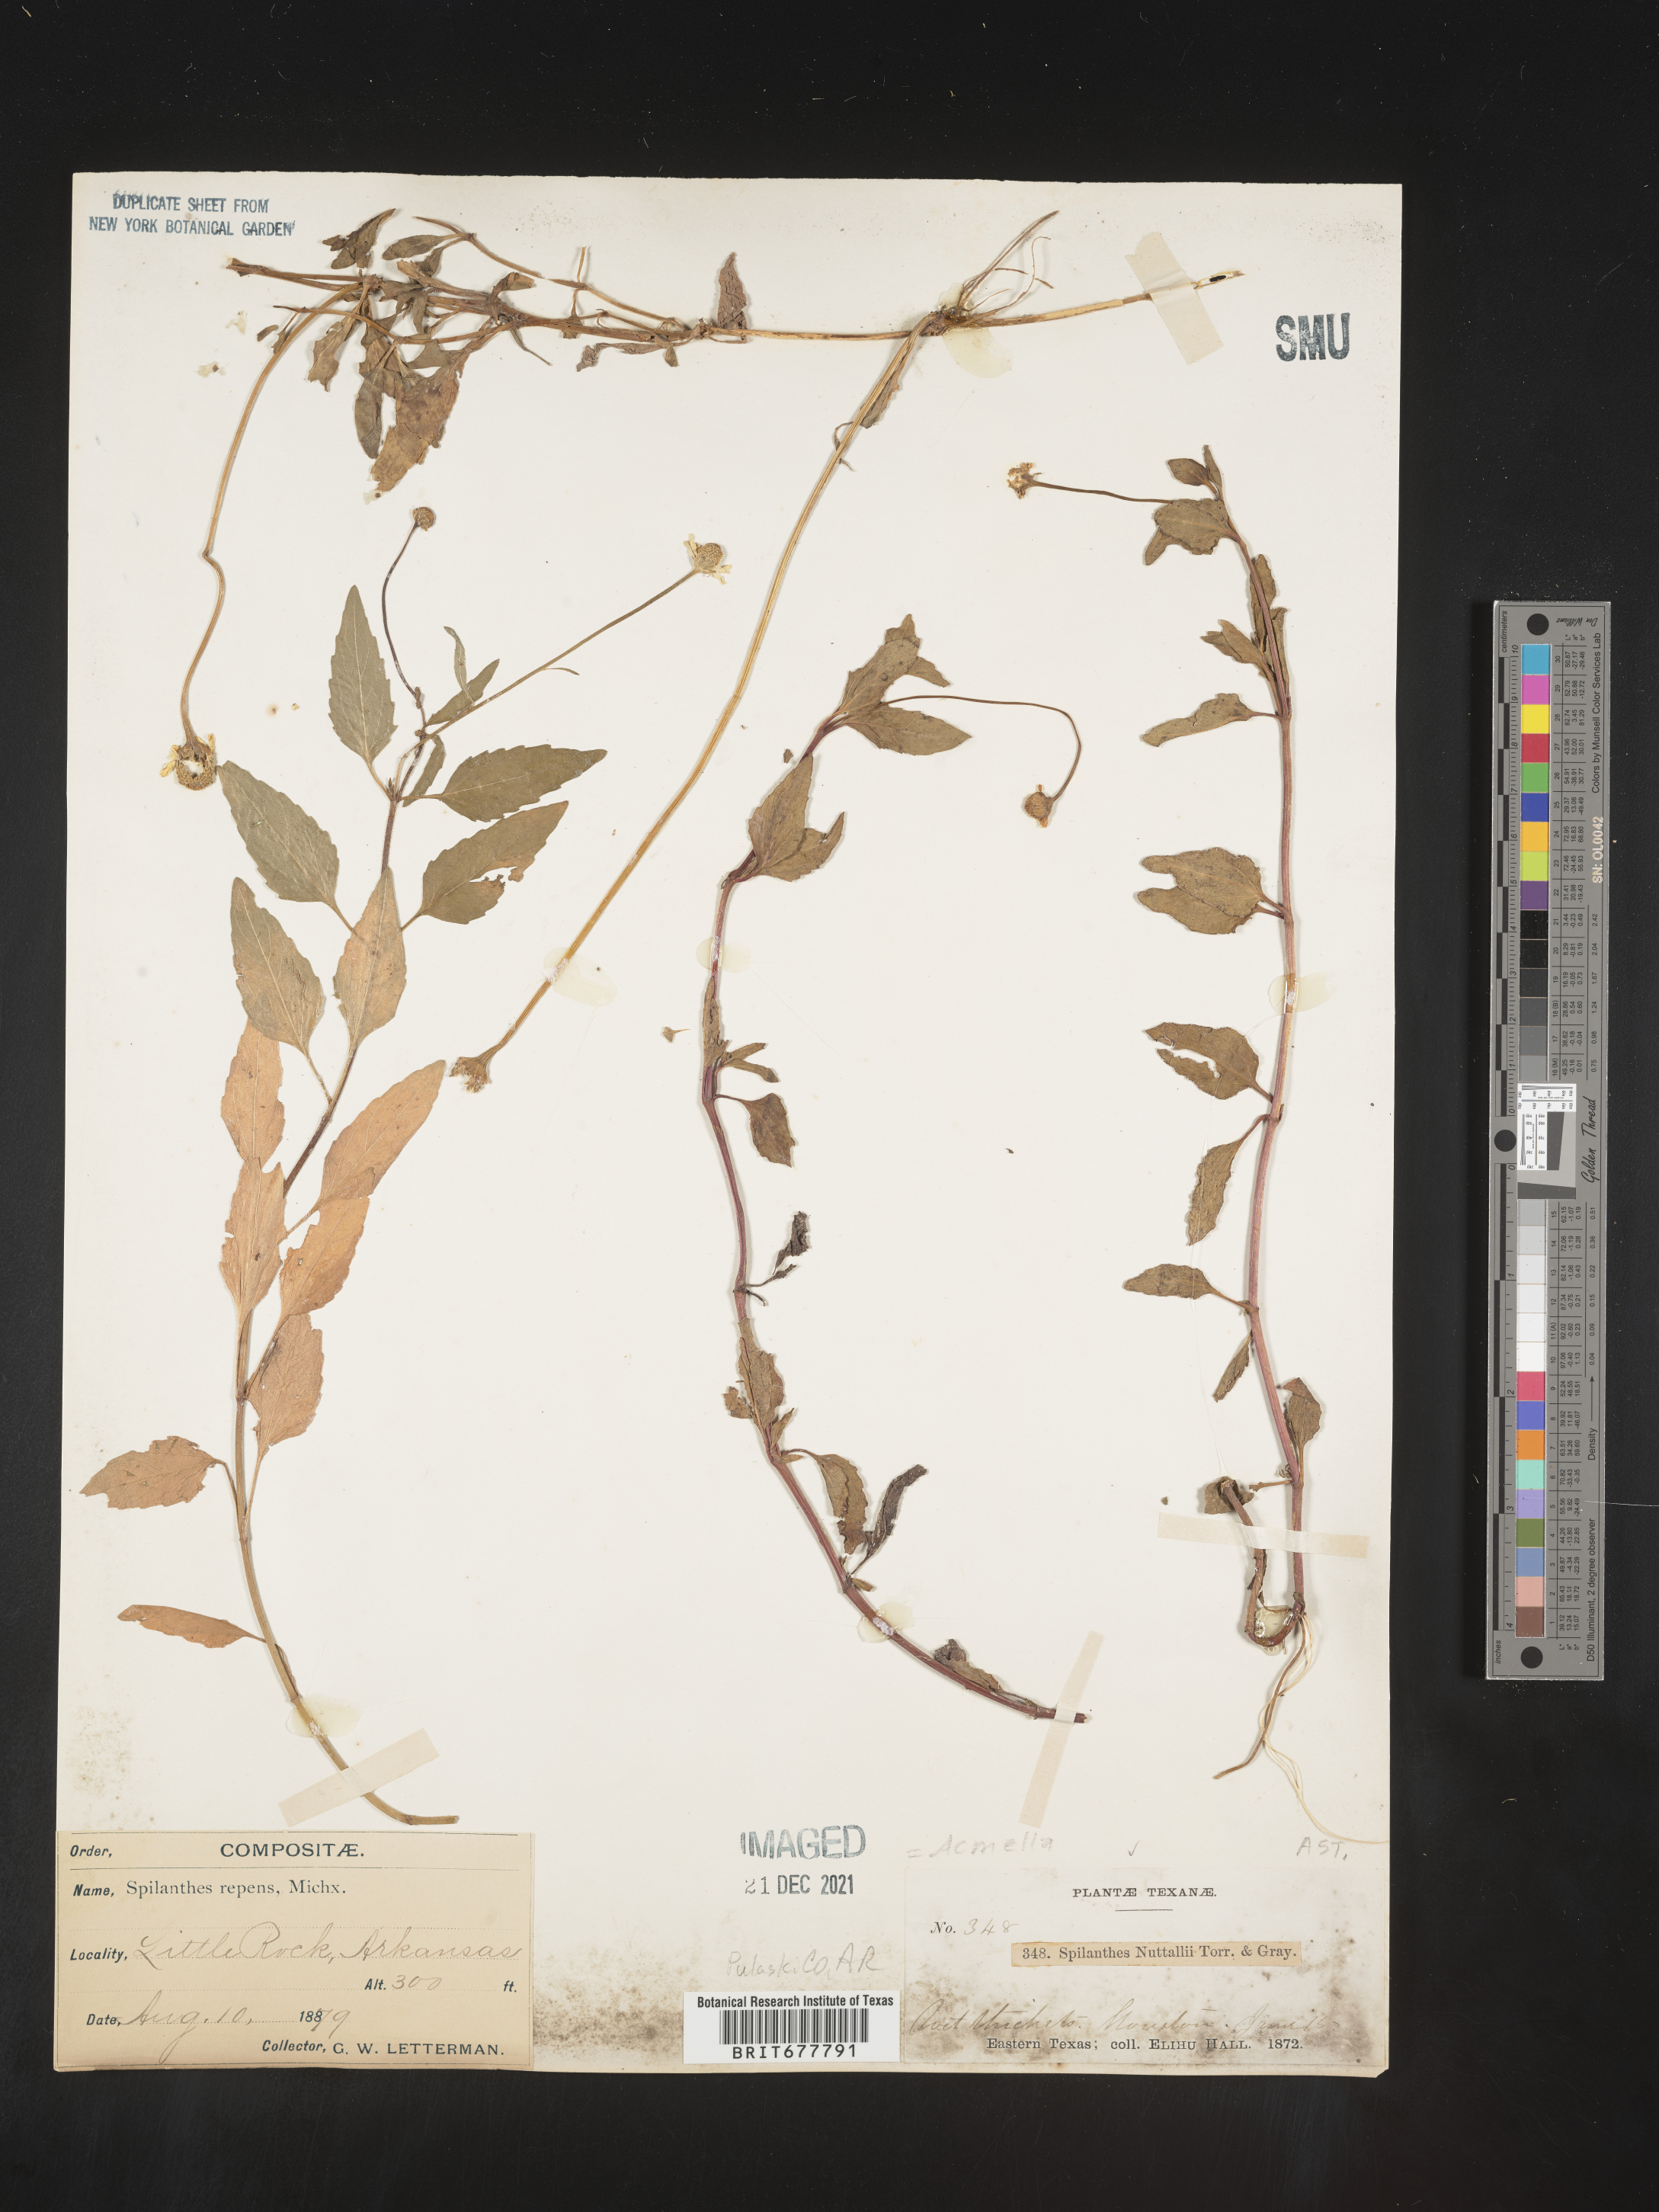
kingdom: Plantae
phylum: Tracheophyta
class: Magnoliopsida
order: Asterales
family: Asteraceae
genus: Spilanthes
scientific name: Spilanthes
